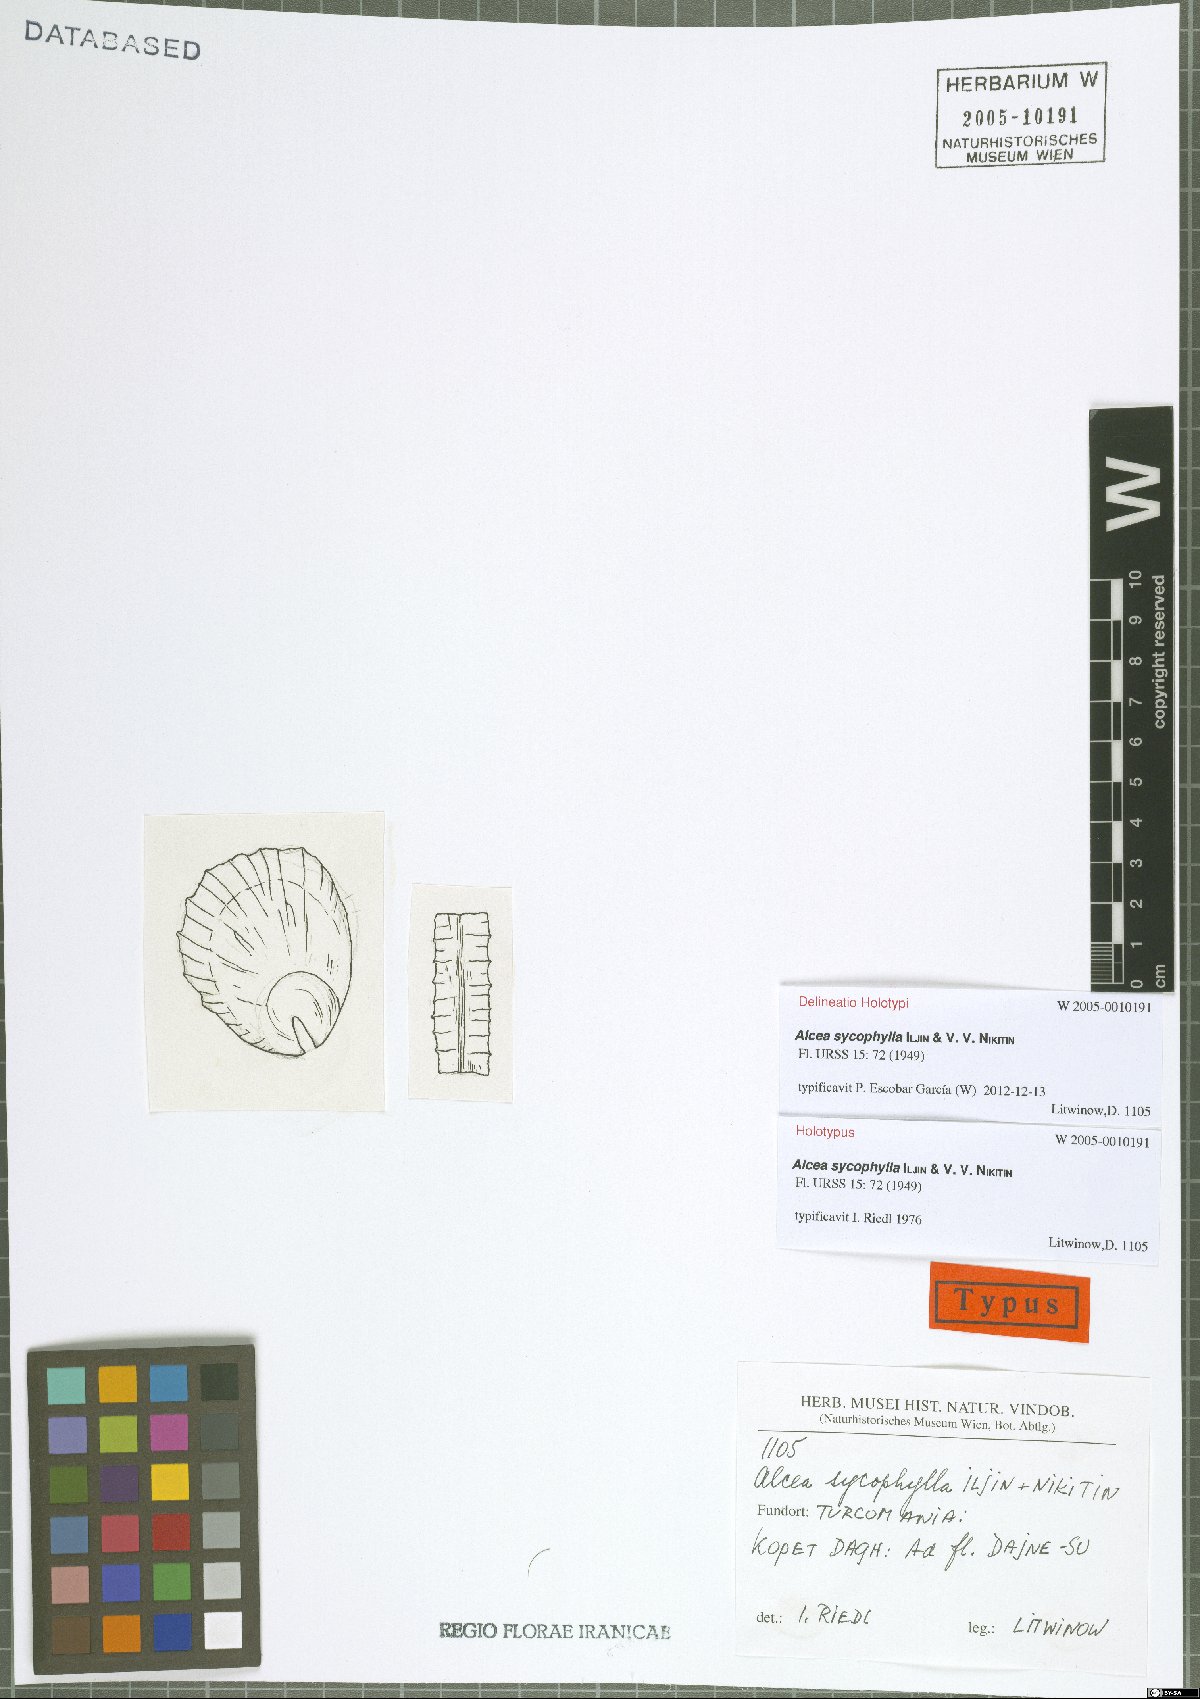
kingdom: Plantae
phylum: Tracheophyta
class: Magnoliopsida
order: Malvales
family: Malvaceae
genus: Alcea
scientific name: Alcea sycophylla
